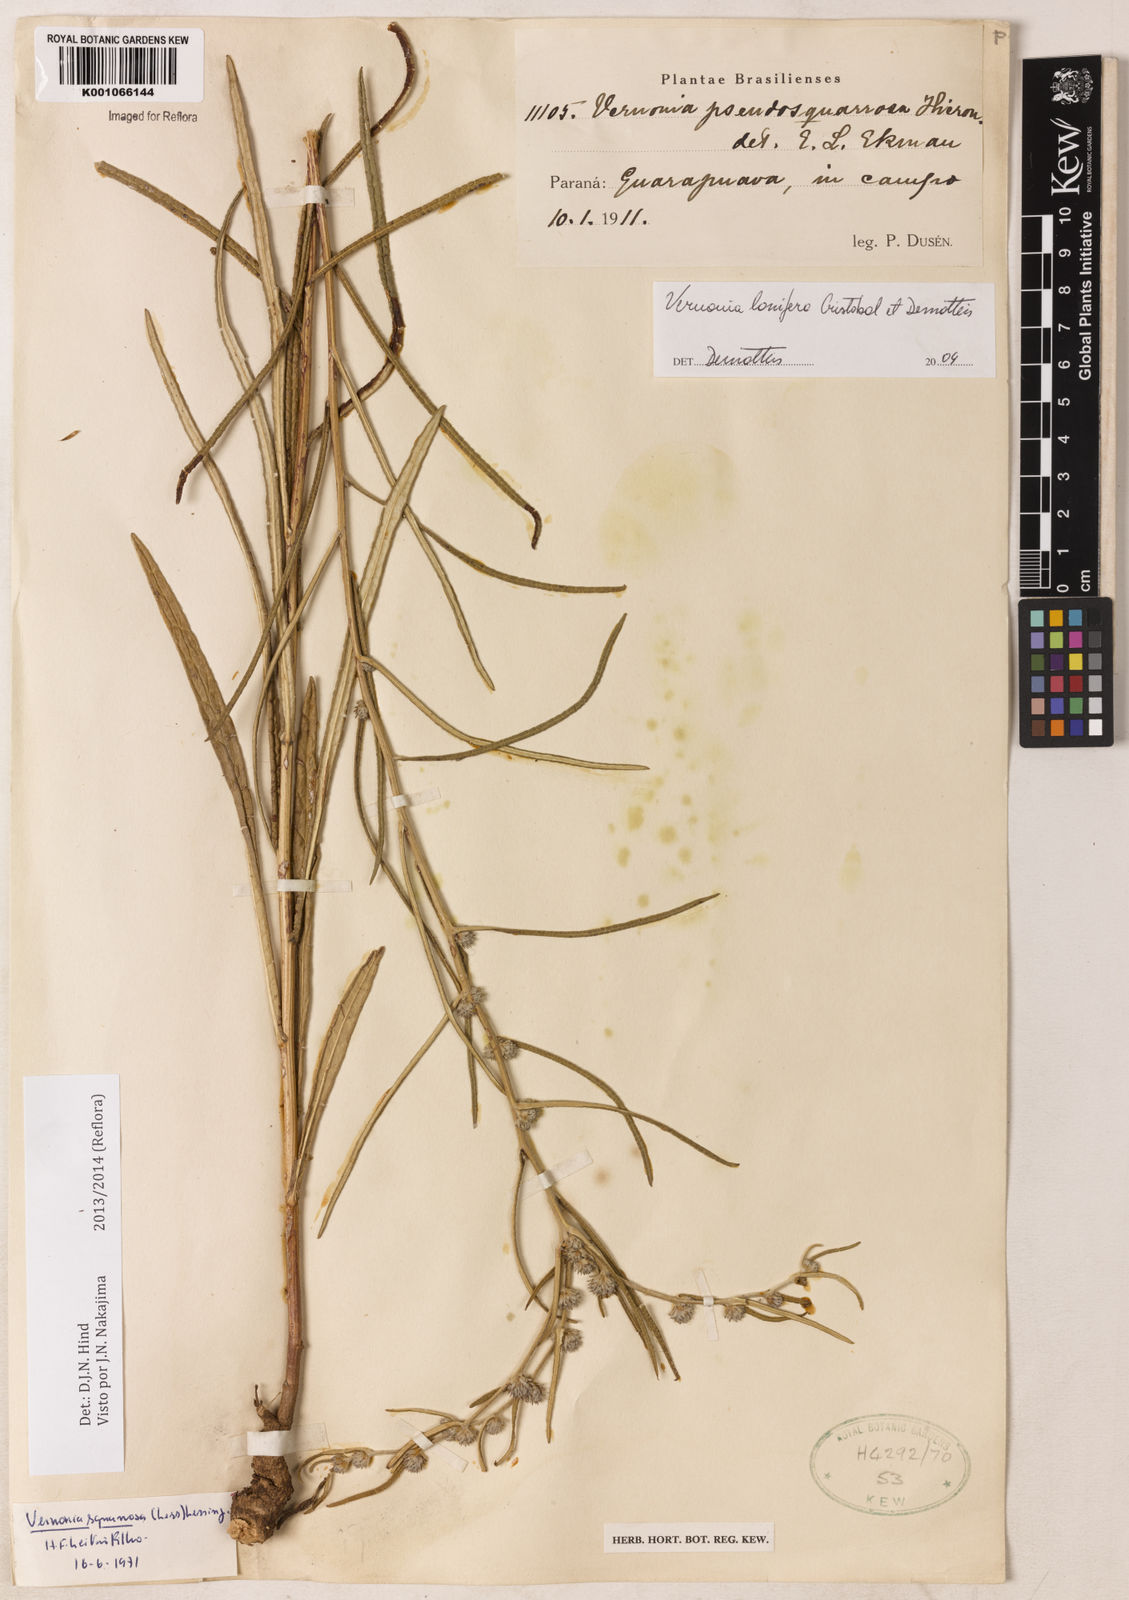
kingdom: Plantae
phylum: Tracheophyta
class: Magnoliopsida
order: Asterales
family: Asteraceae
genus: Vernonia
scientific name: Vernonia
